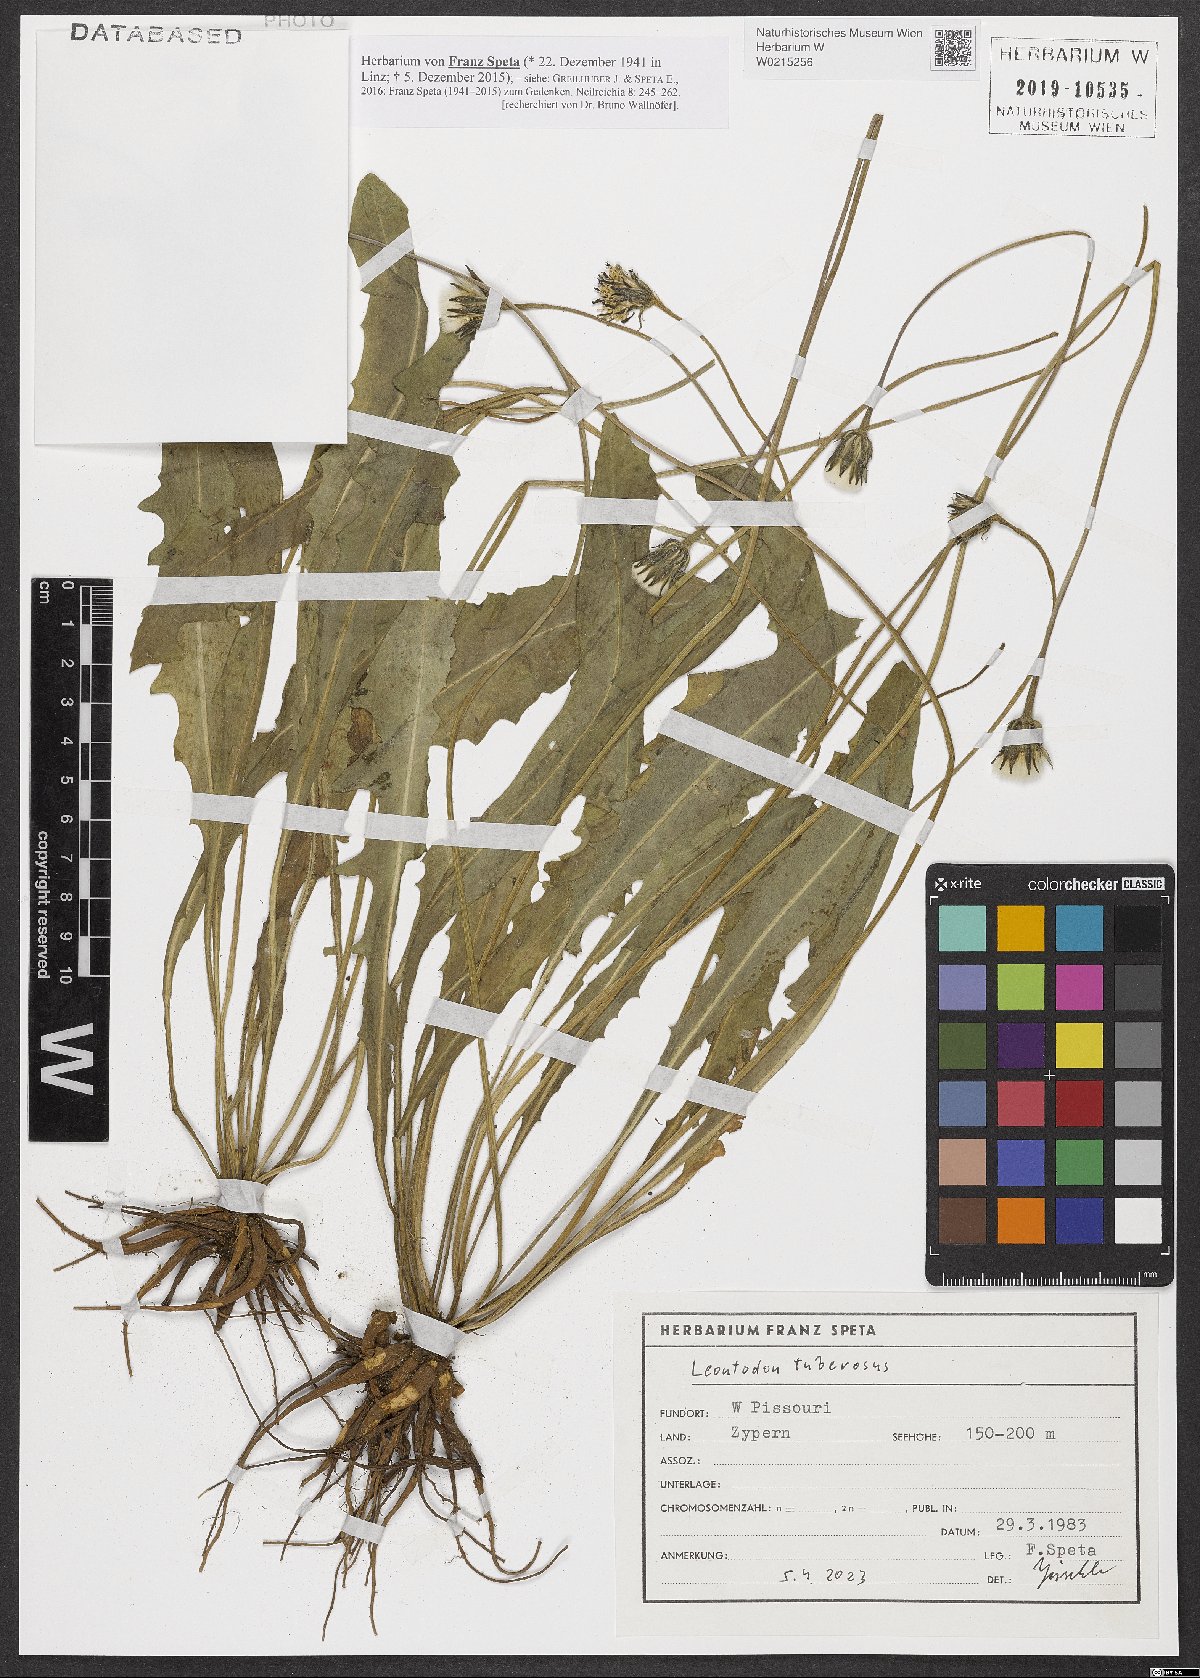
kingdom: Plantae
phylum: Tracheophyta
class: Magnoliopsida
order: Asterales
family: Asteraceae
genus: Thrincia
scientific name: Thrincia tuberosa
